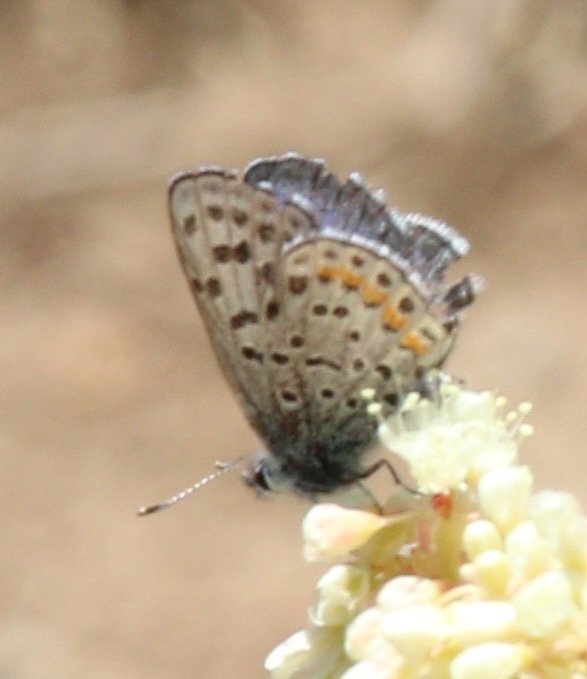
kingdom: Animalia
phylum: Arthropoda
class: Insecta
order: Lepidoptera
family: Lycaenidae
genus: Euphilotes
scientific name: Euphilotes enoptes
